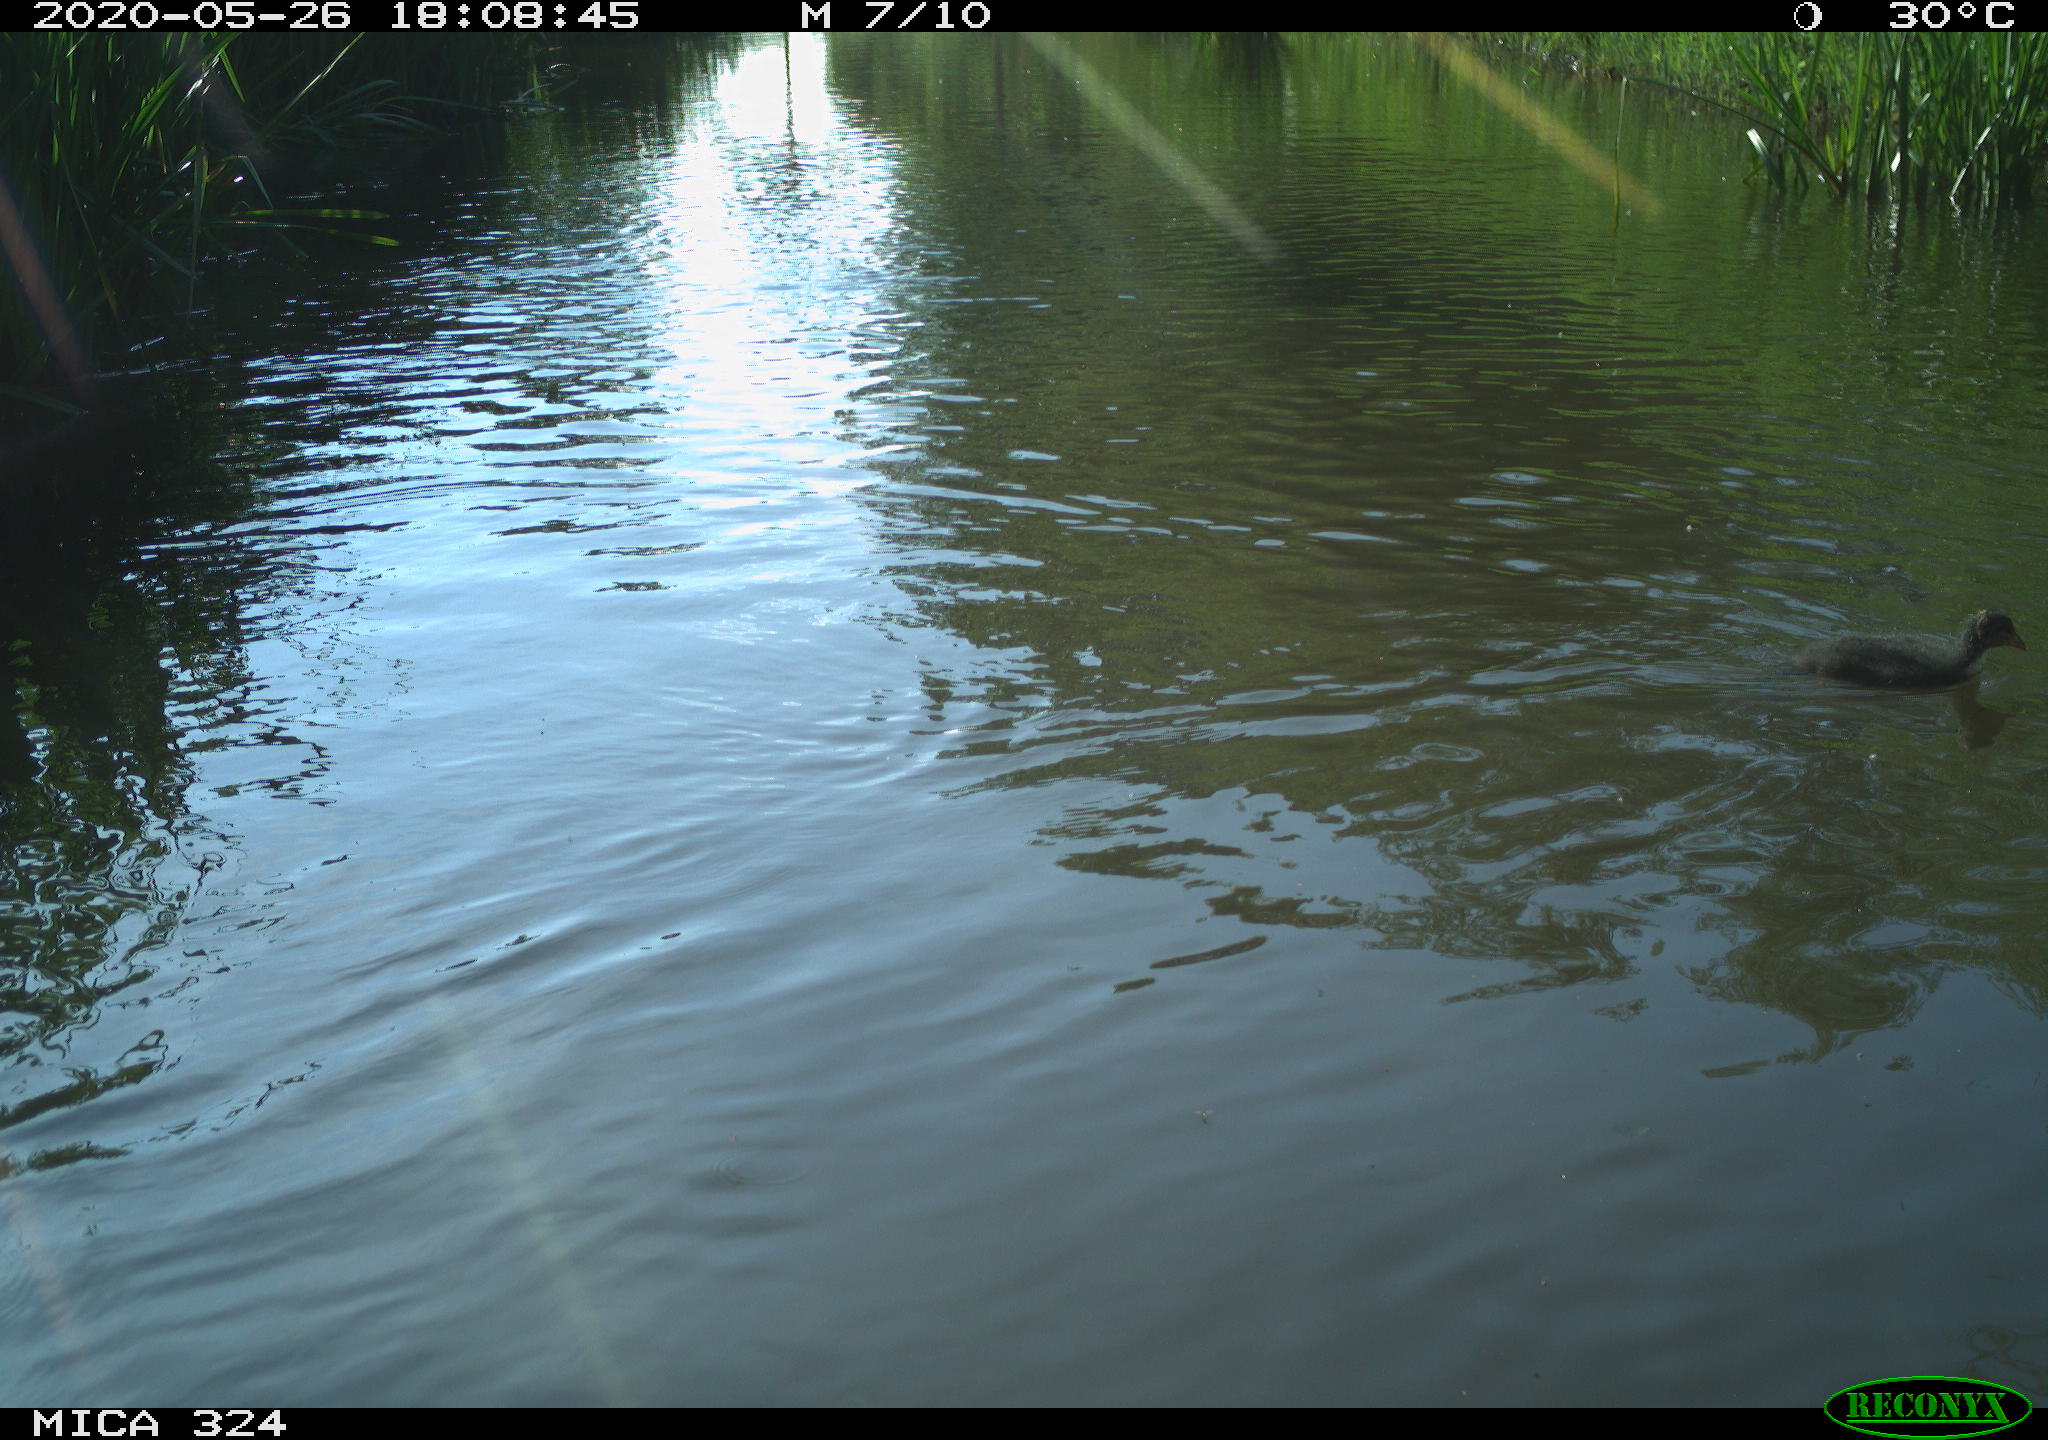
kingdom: Animalia
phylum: Chordata
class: Aves
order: Gruiformes
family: Rallidae
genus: Fulica
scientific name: Fulica atra
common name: Eurasian coot
